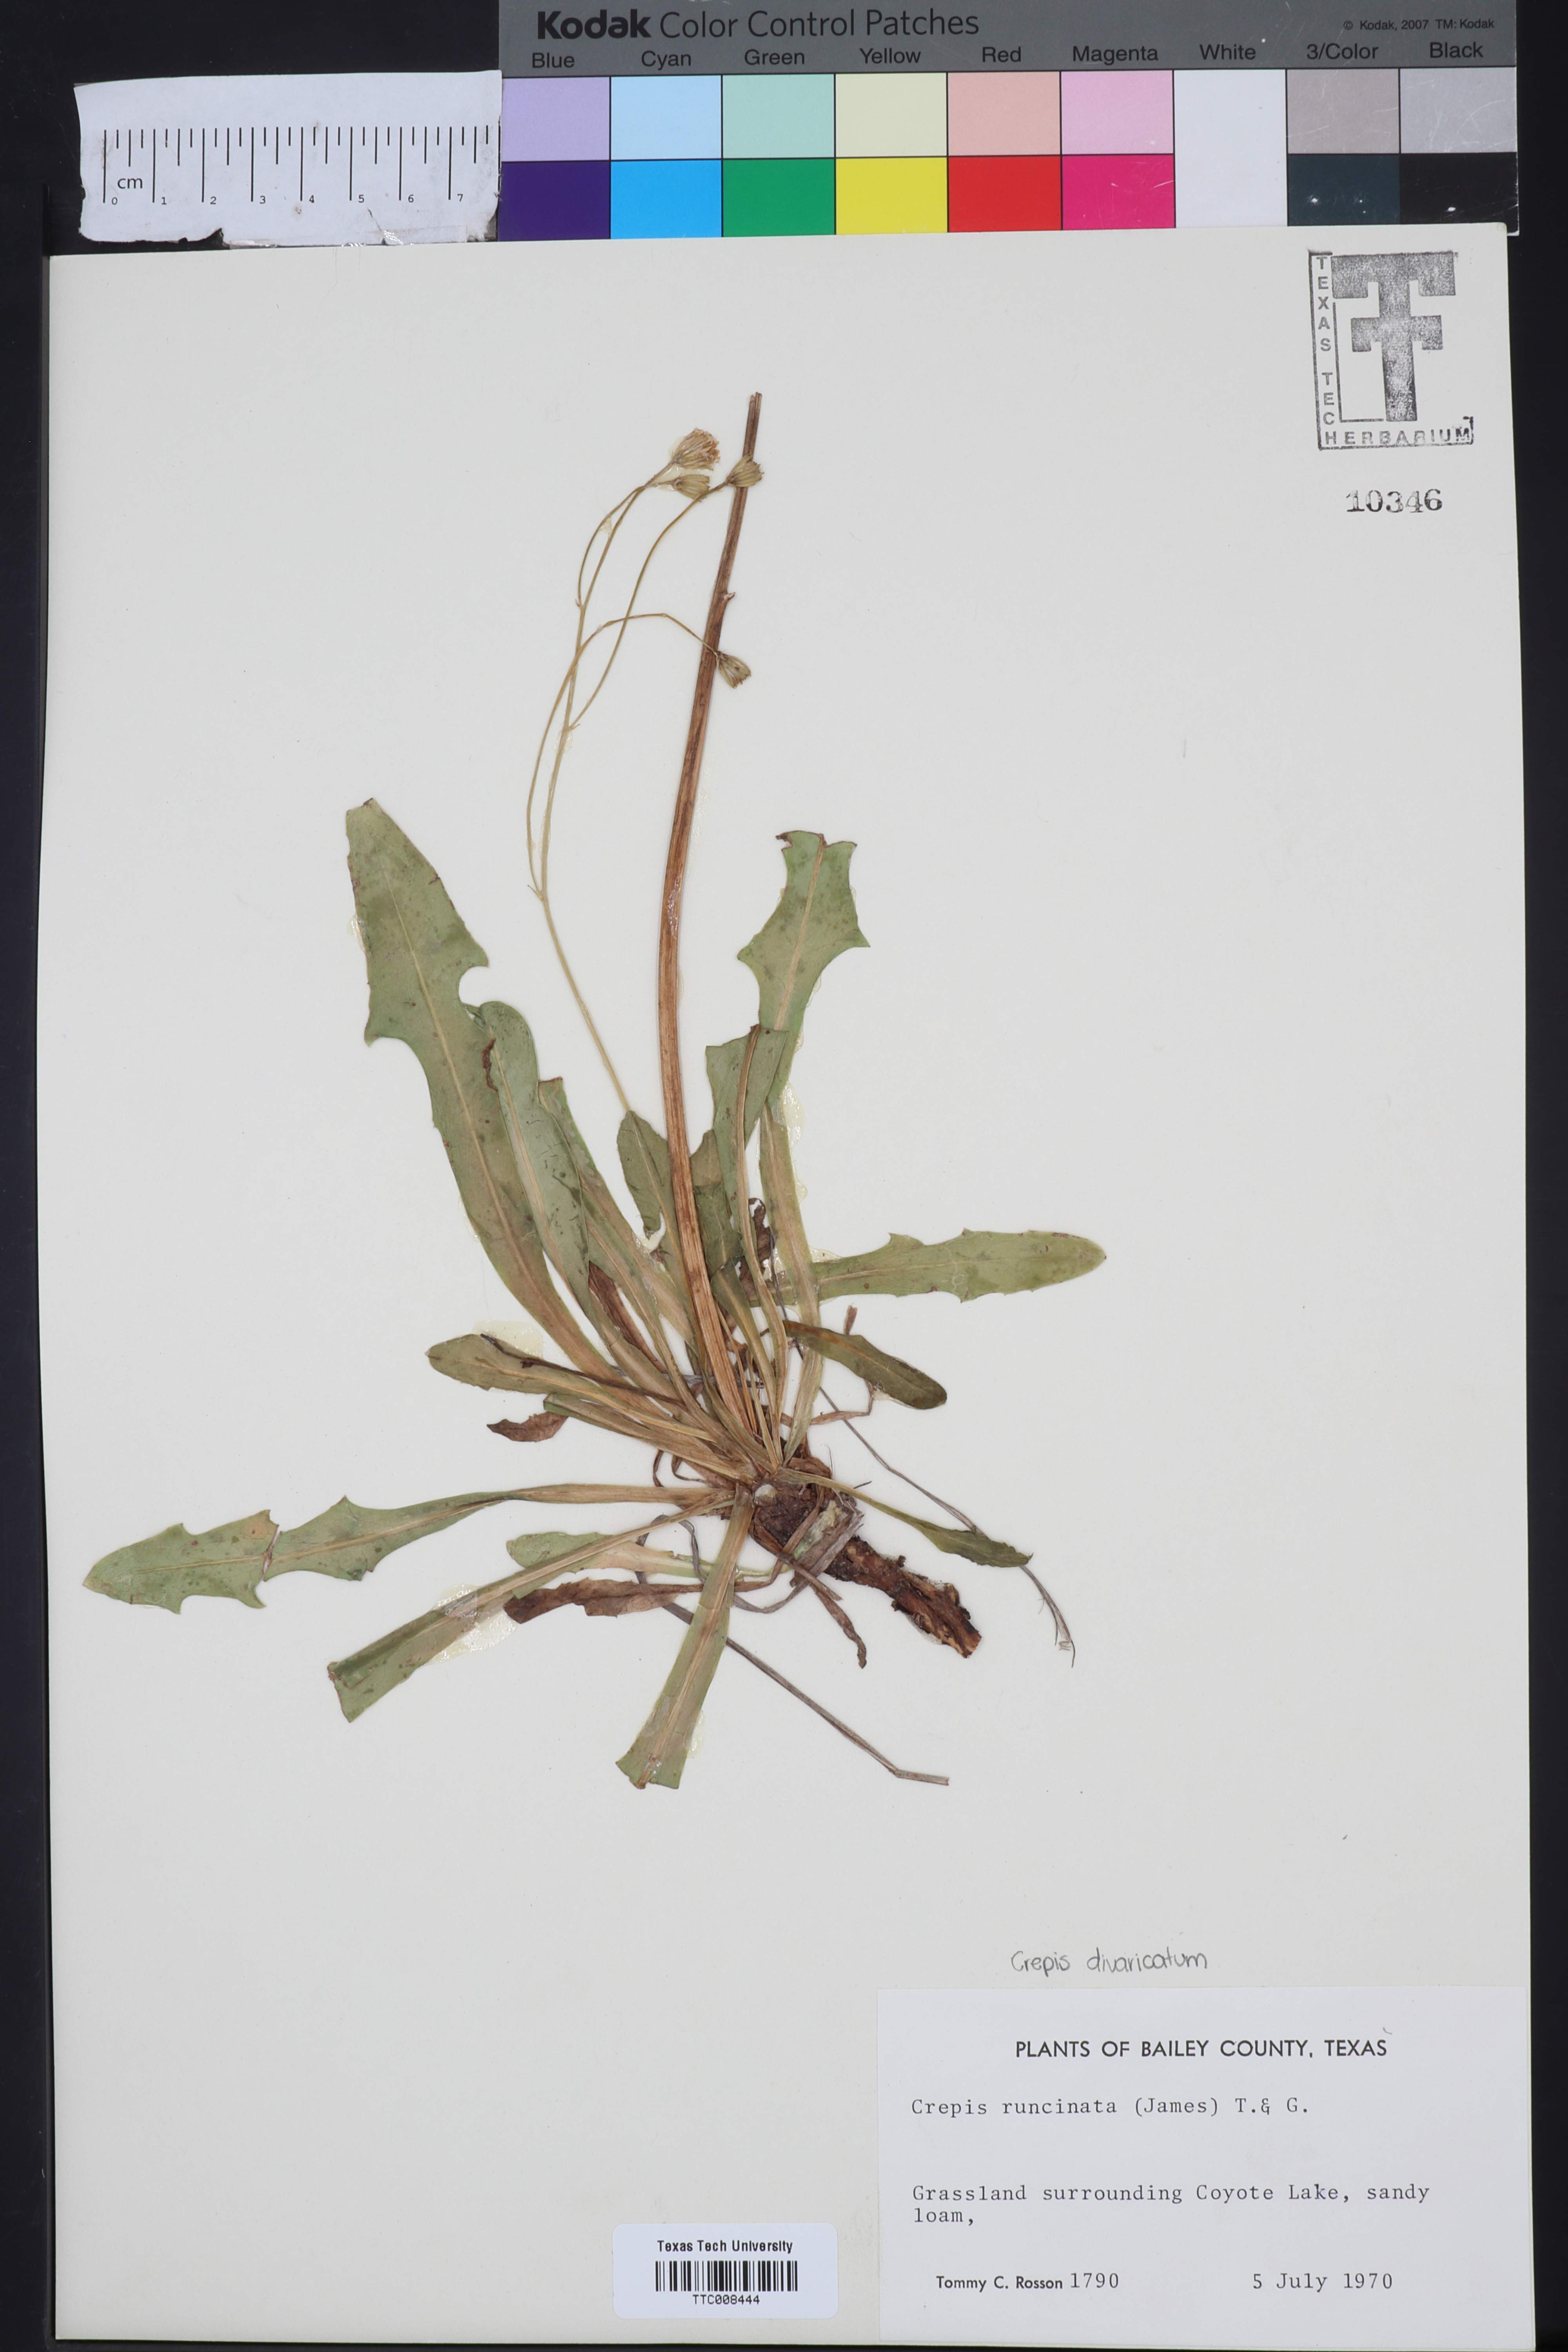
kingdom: Plantae
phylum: Tracheophyta
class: Magnoliopsida
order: Asterales
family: Asteraceae
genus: Crepis
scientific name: Crepis runcinata
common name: Dandelion hawksbeard
